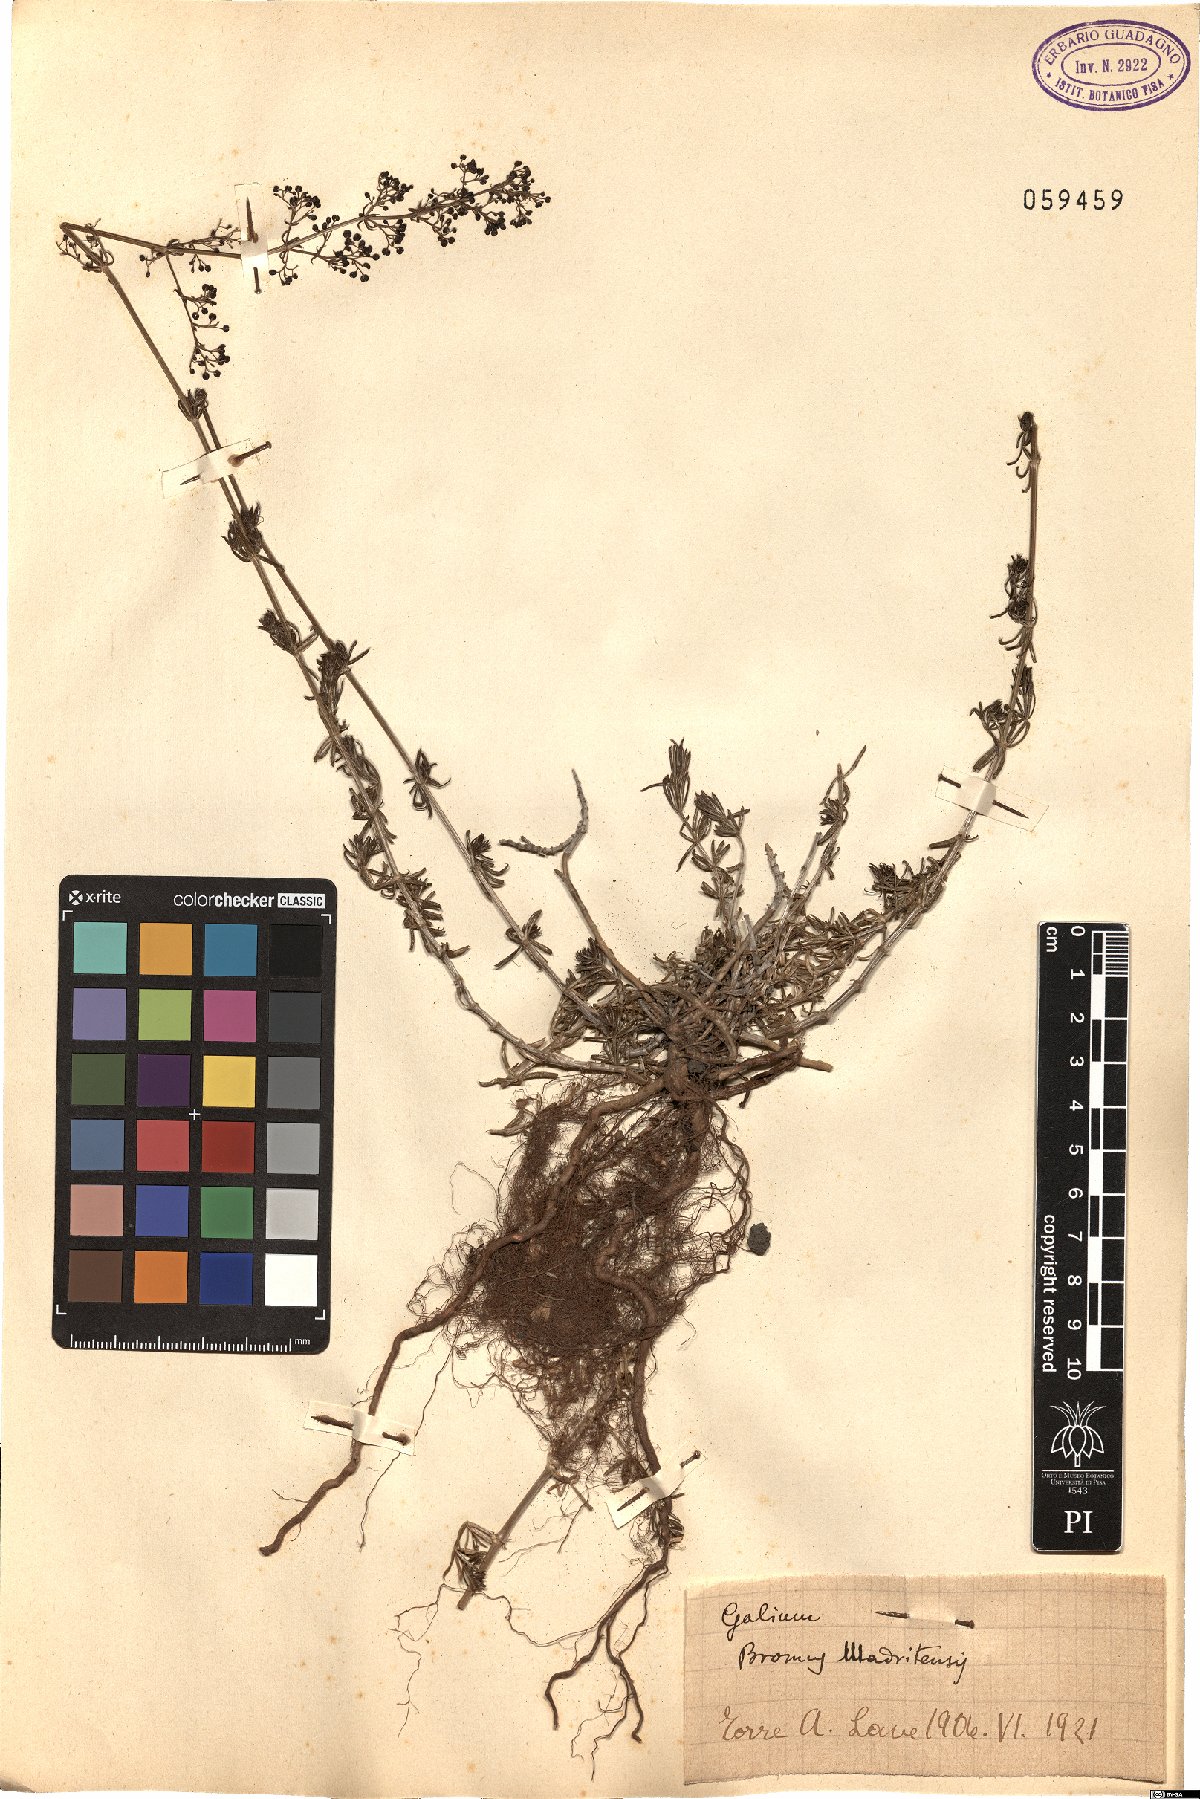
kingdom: Plantae
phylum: Tracheophyta
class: Magnoliopsida
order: Gentianales
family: Rubiaceae
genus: Galium
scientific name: Galium
